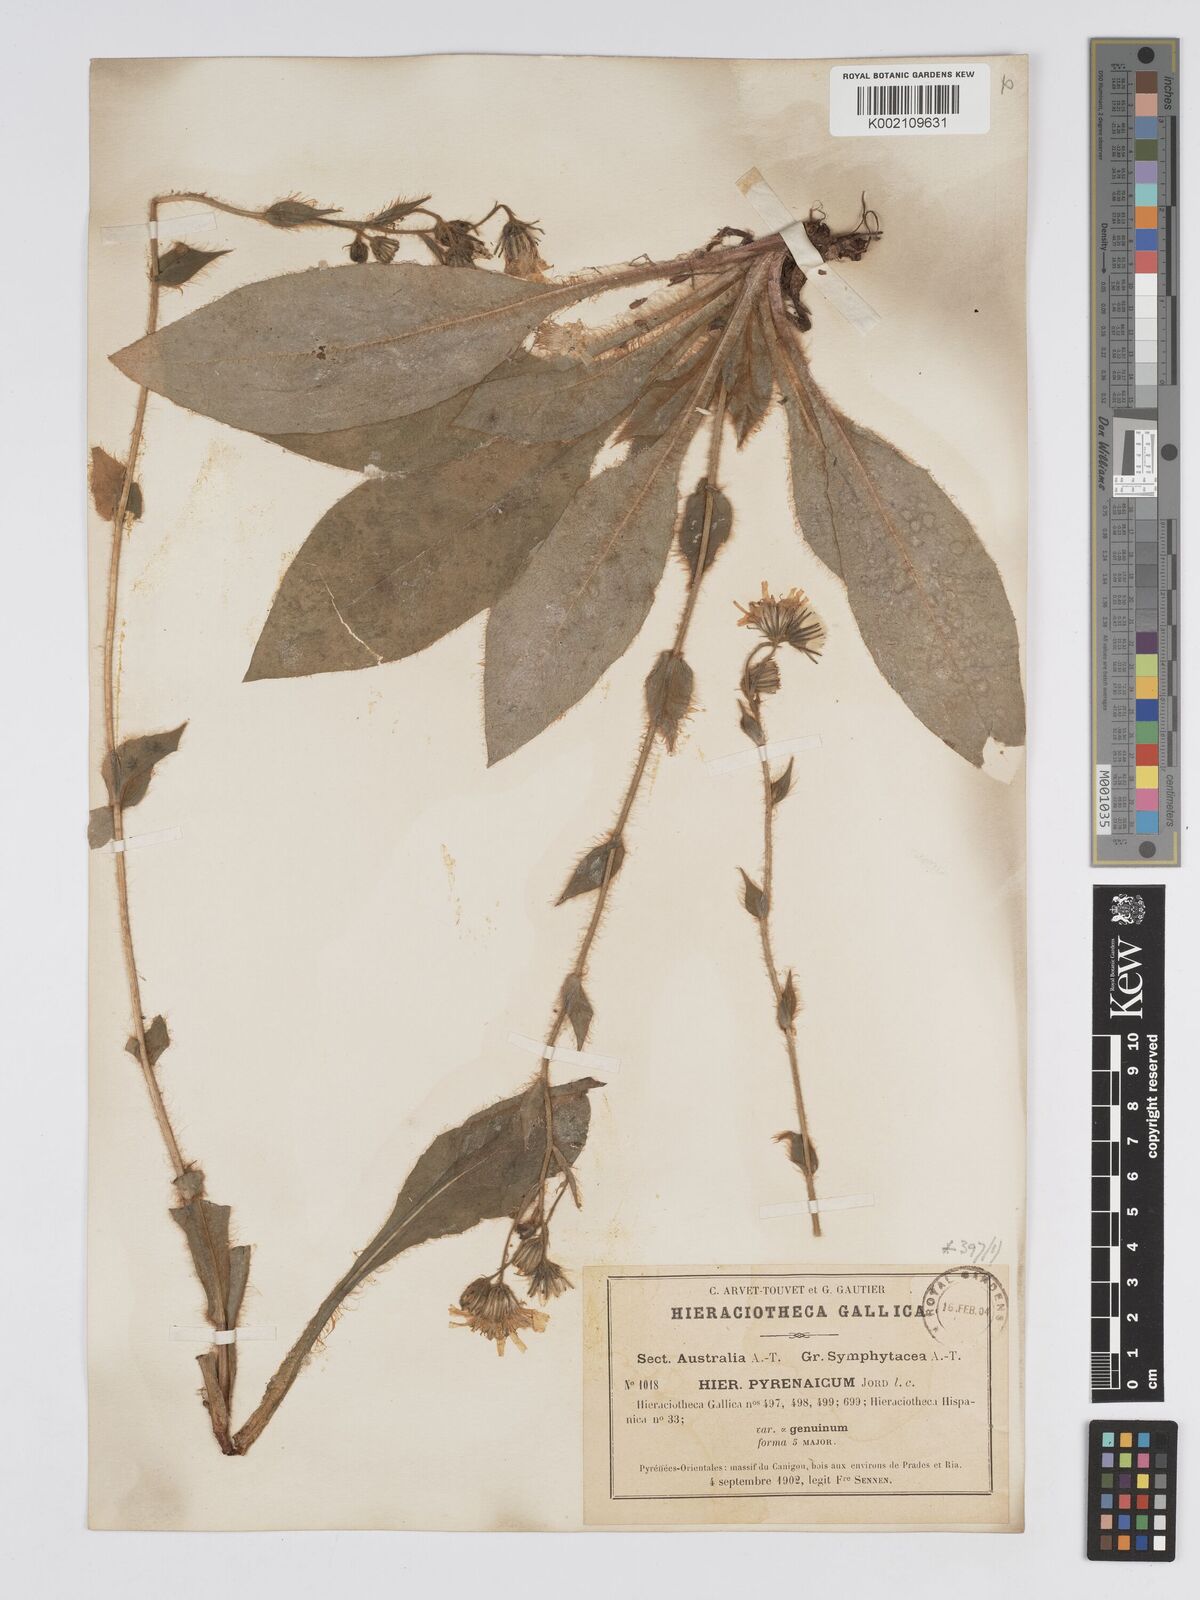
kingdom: Plantae
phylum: Tracheophyta
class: Magnoliopsida
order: Asterales
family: Asteraceae
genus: Hieracium
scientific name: Hieracium nobile
